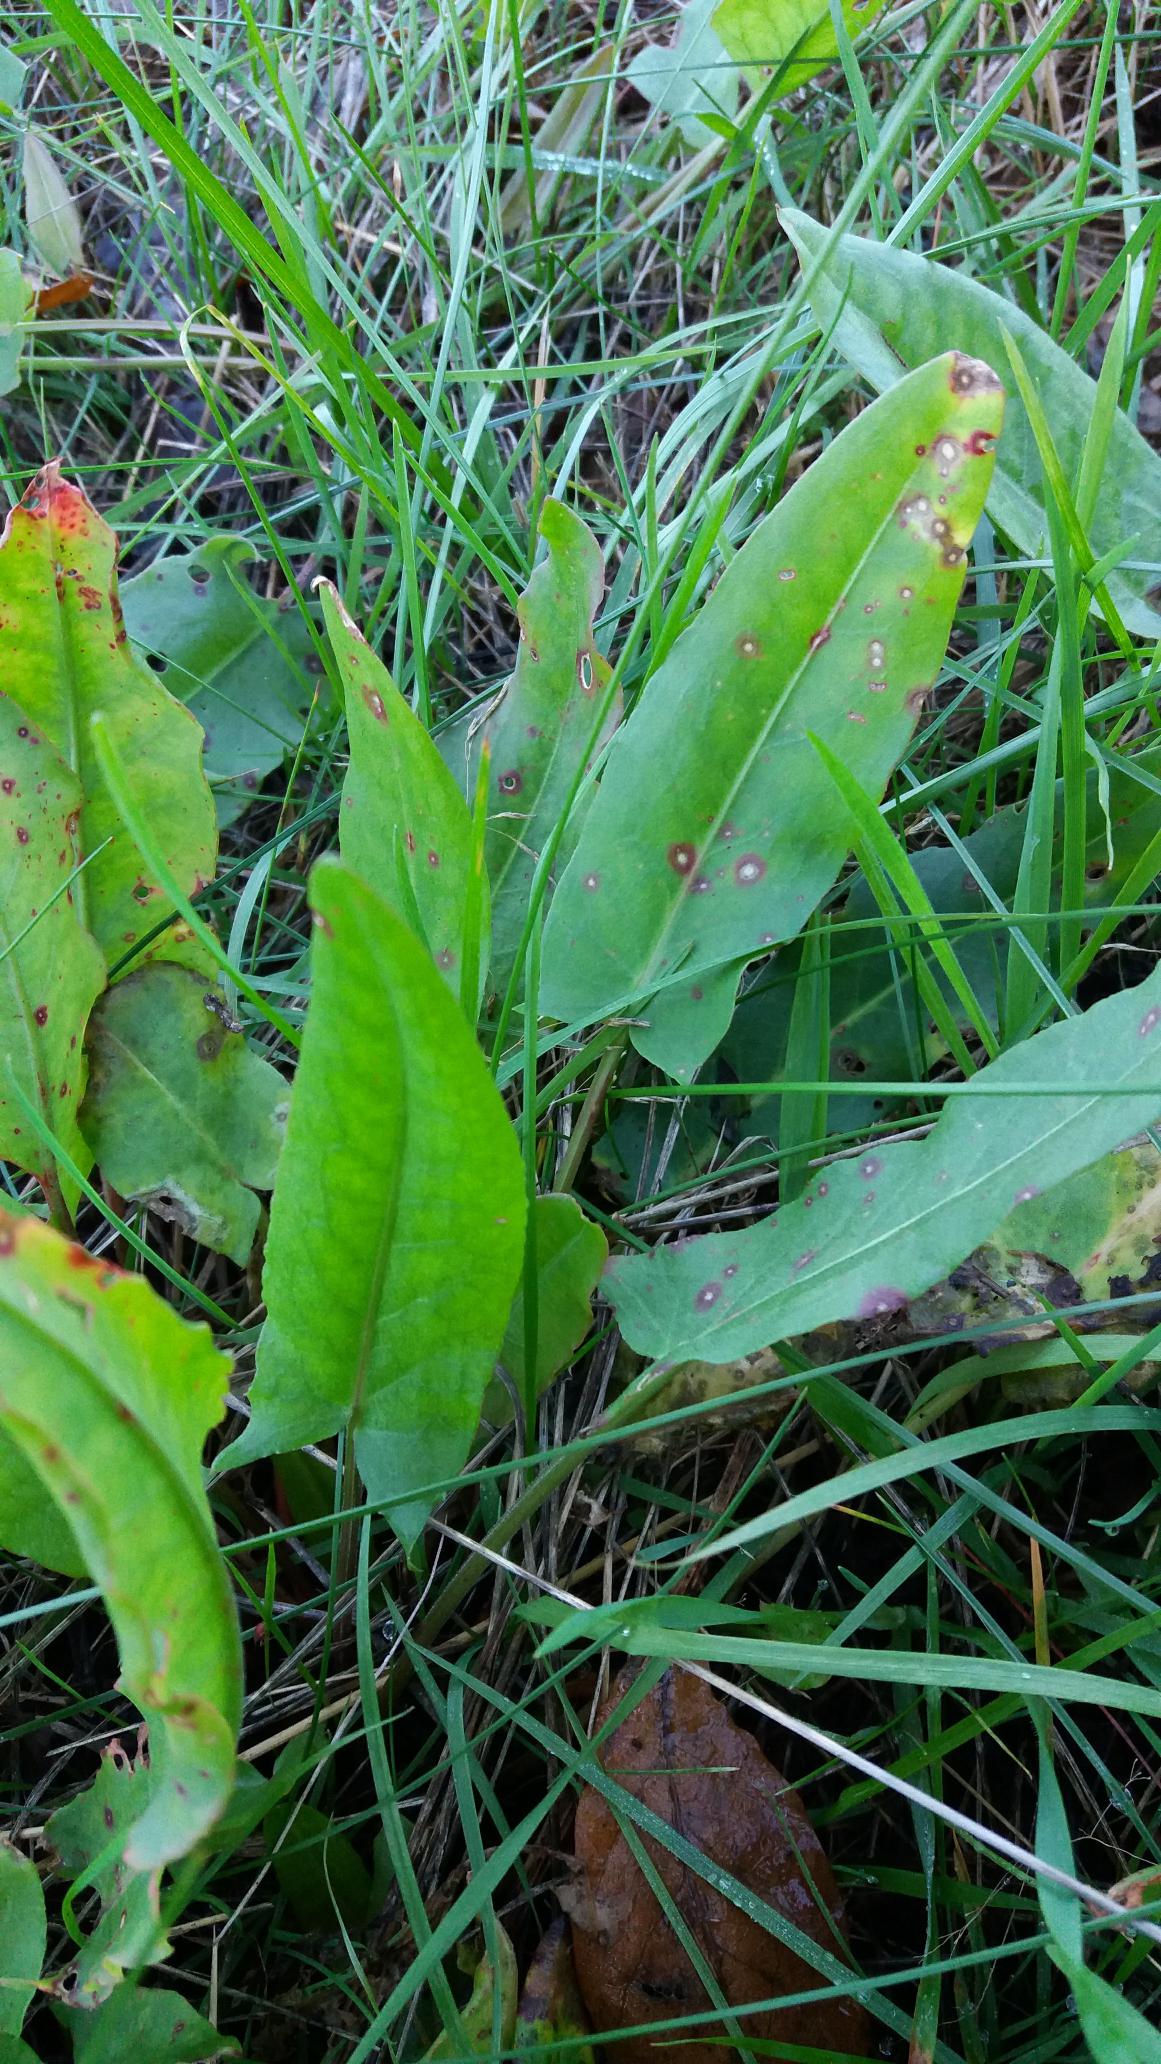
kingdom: Plantae
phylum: Tracheophyta
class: Magnoliopsida
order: Caryophyllales
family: Polygonaceae
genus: Rumex
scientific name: Rumex thyrsiflorus
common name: Dusk-syre
